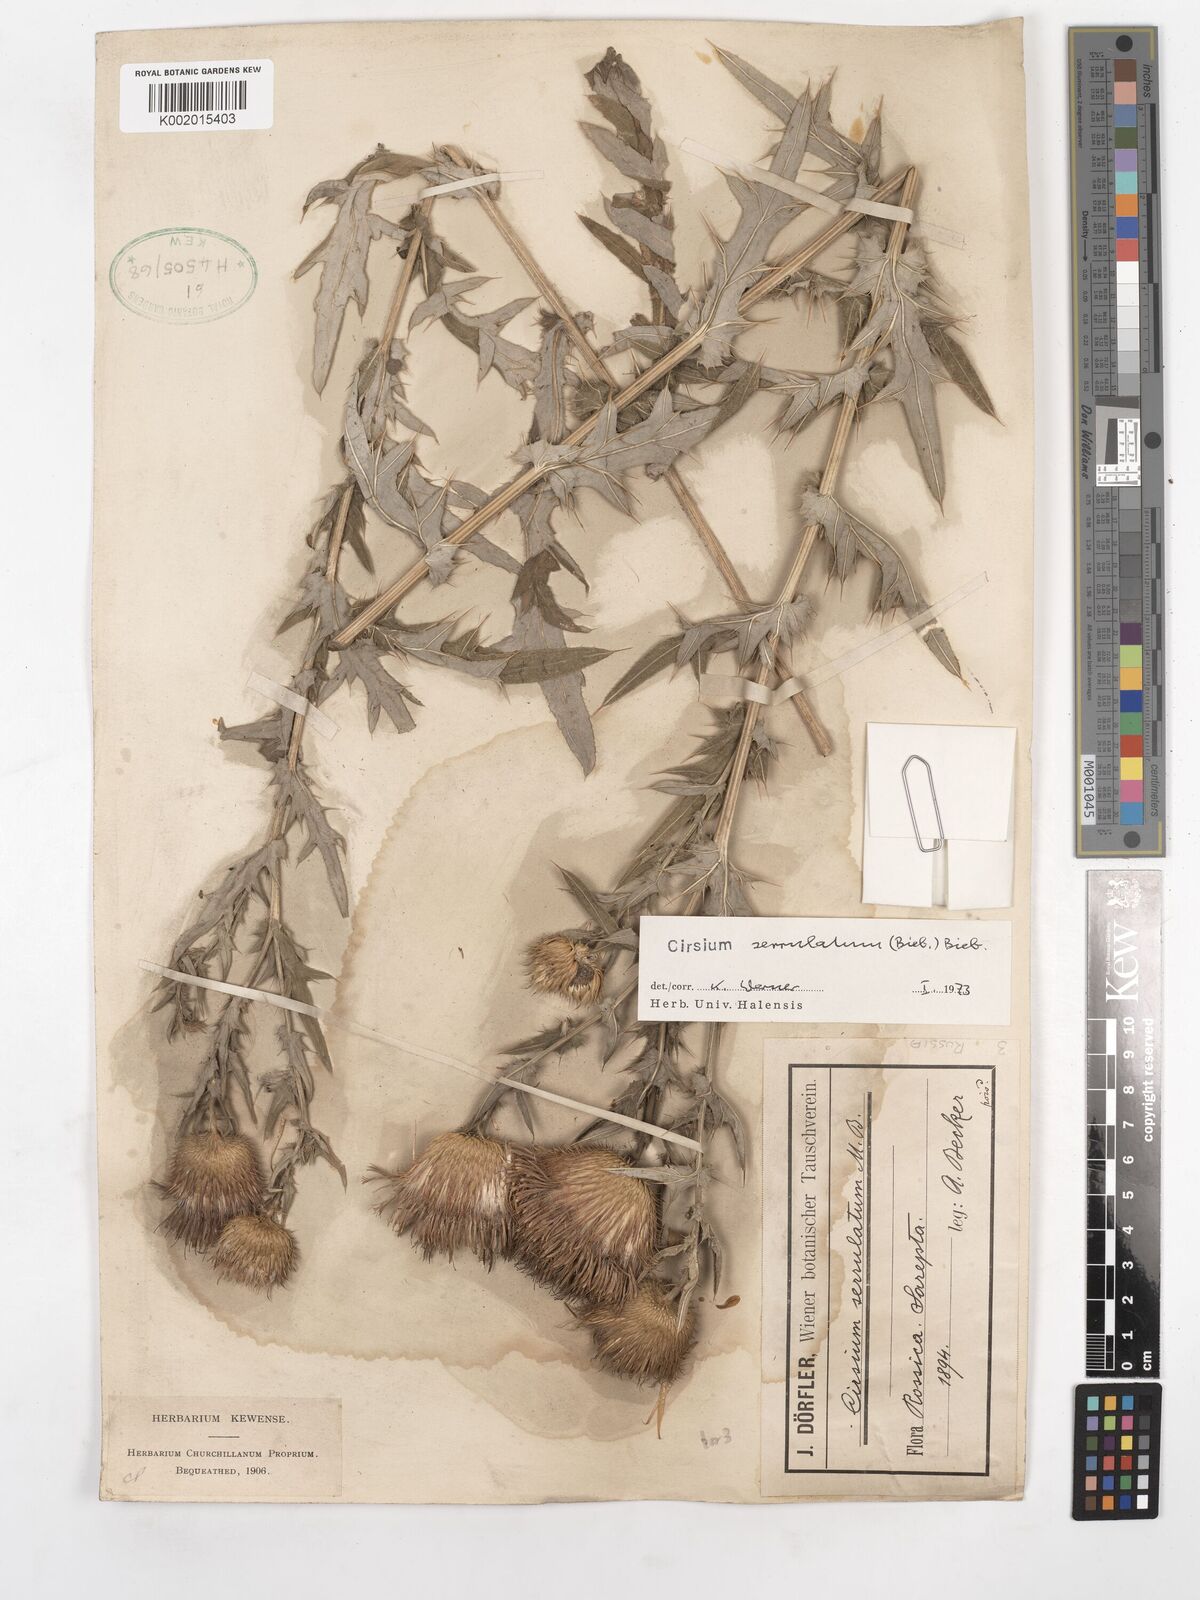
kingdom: Plantae
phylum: Tracheophyta
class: Magnoliopsida
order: Asterales
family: Asteraceae
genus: Lophiolepis
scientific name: Lophiolepis serrulata
